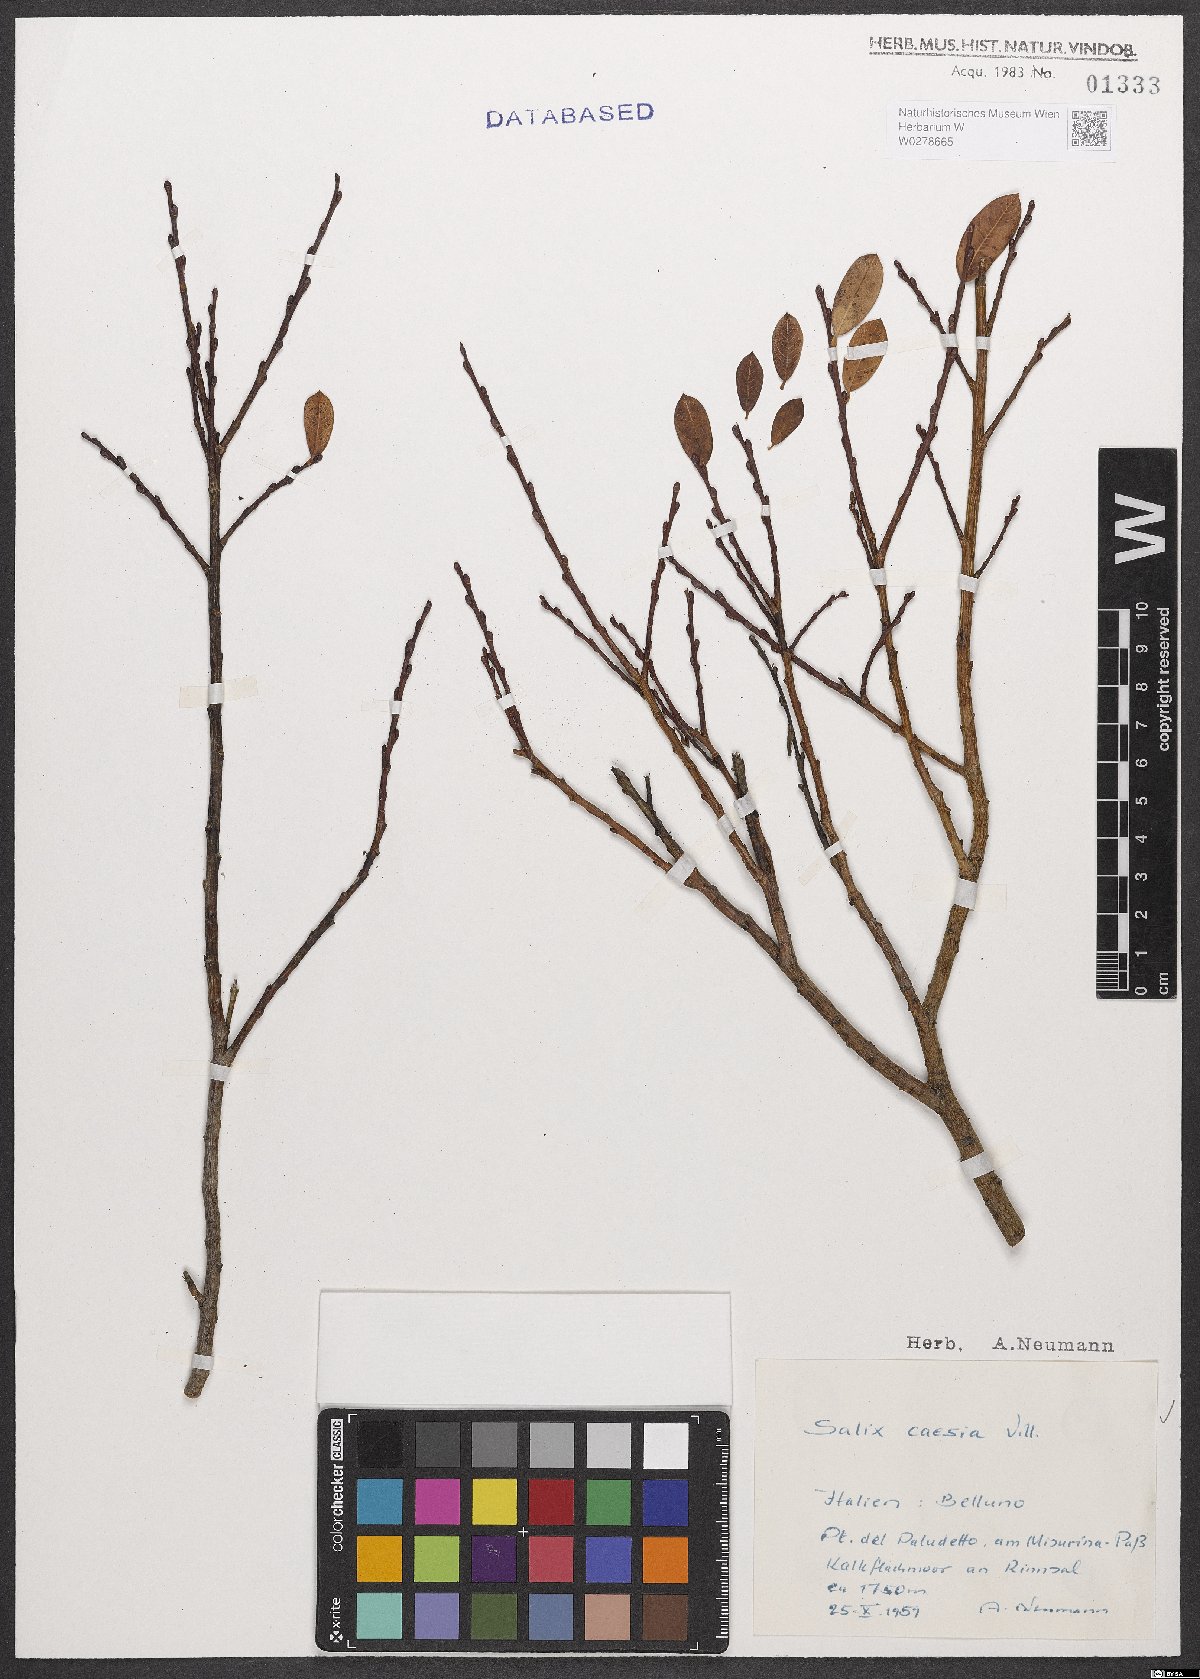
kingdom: Plantae
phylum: Tracheophyta
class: Magnoliopsida
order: Malpighiales
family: Salicaceae
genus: Salix
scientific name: Salix caesia
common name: Blue willow
